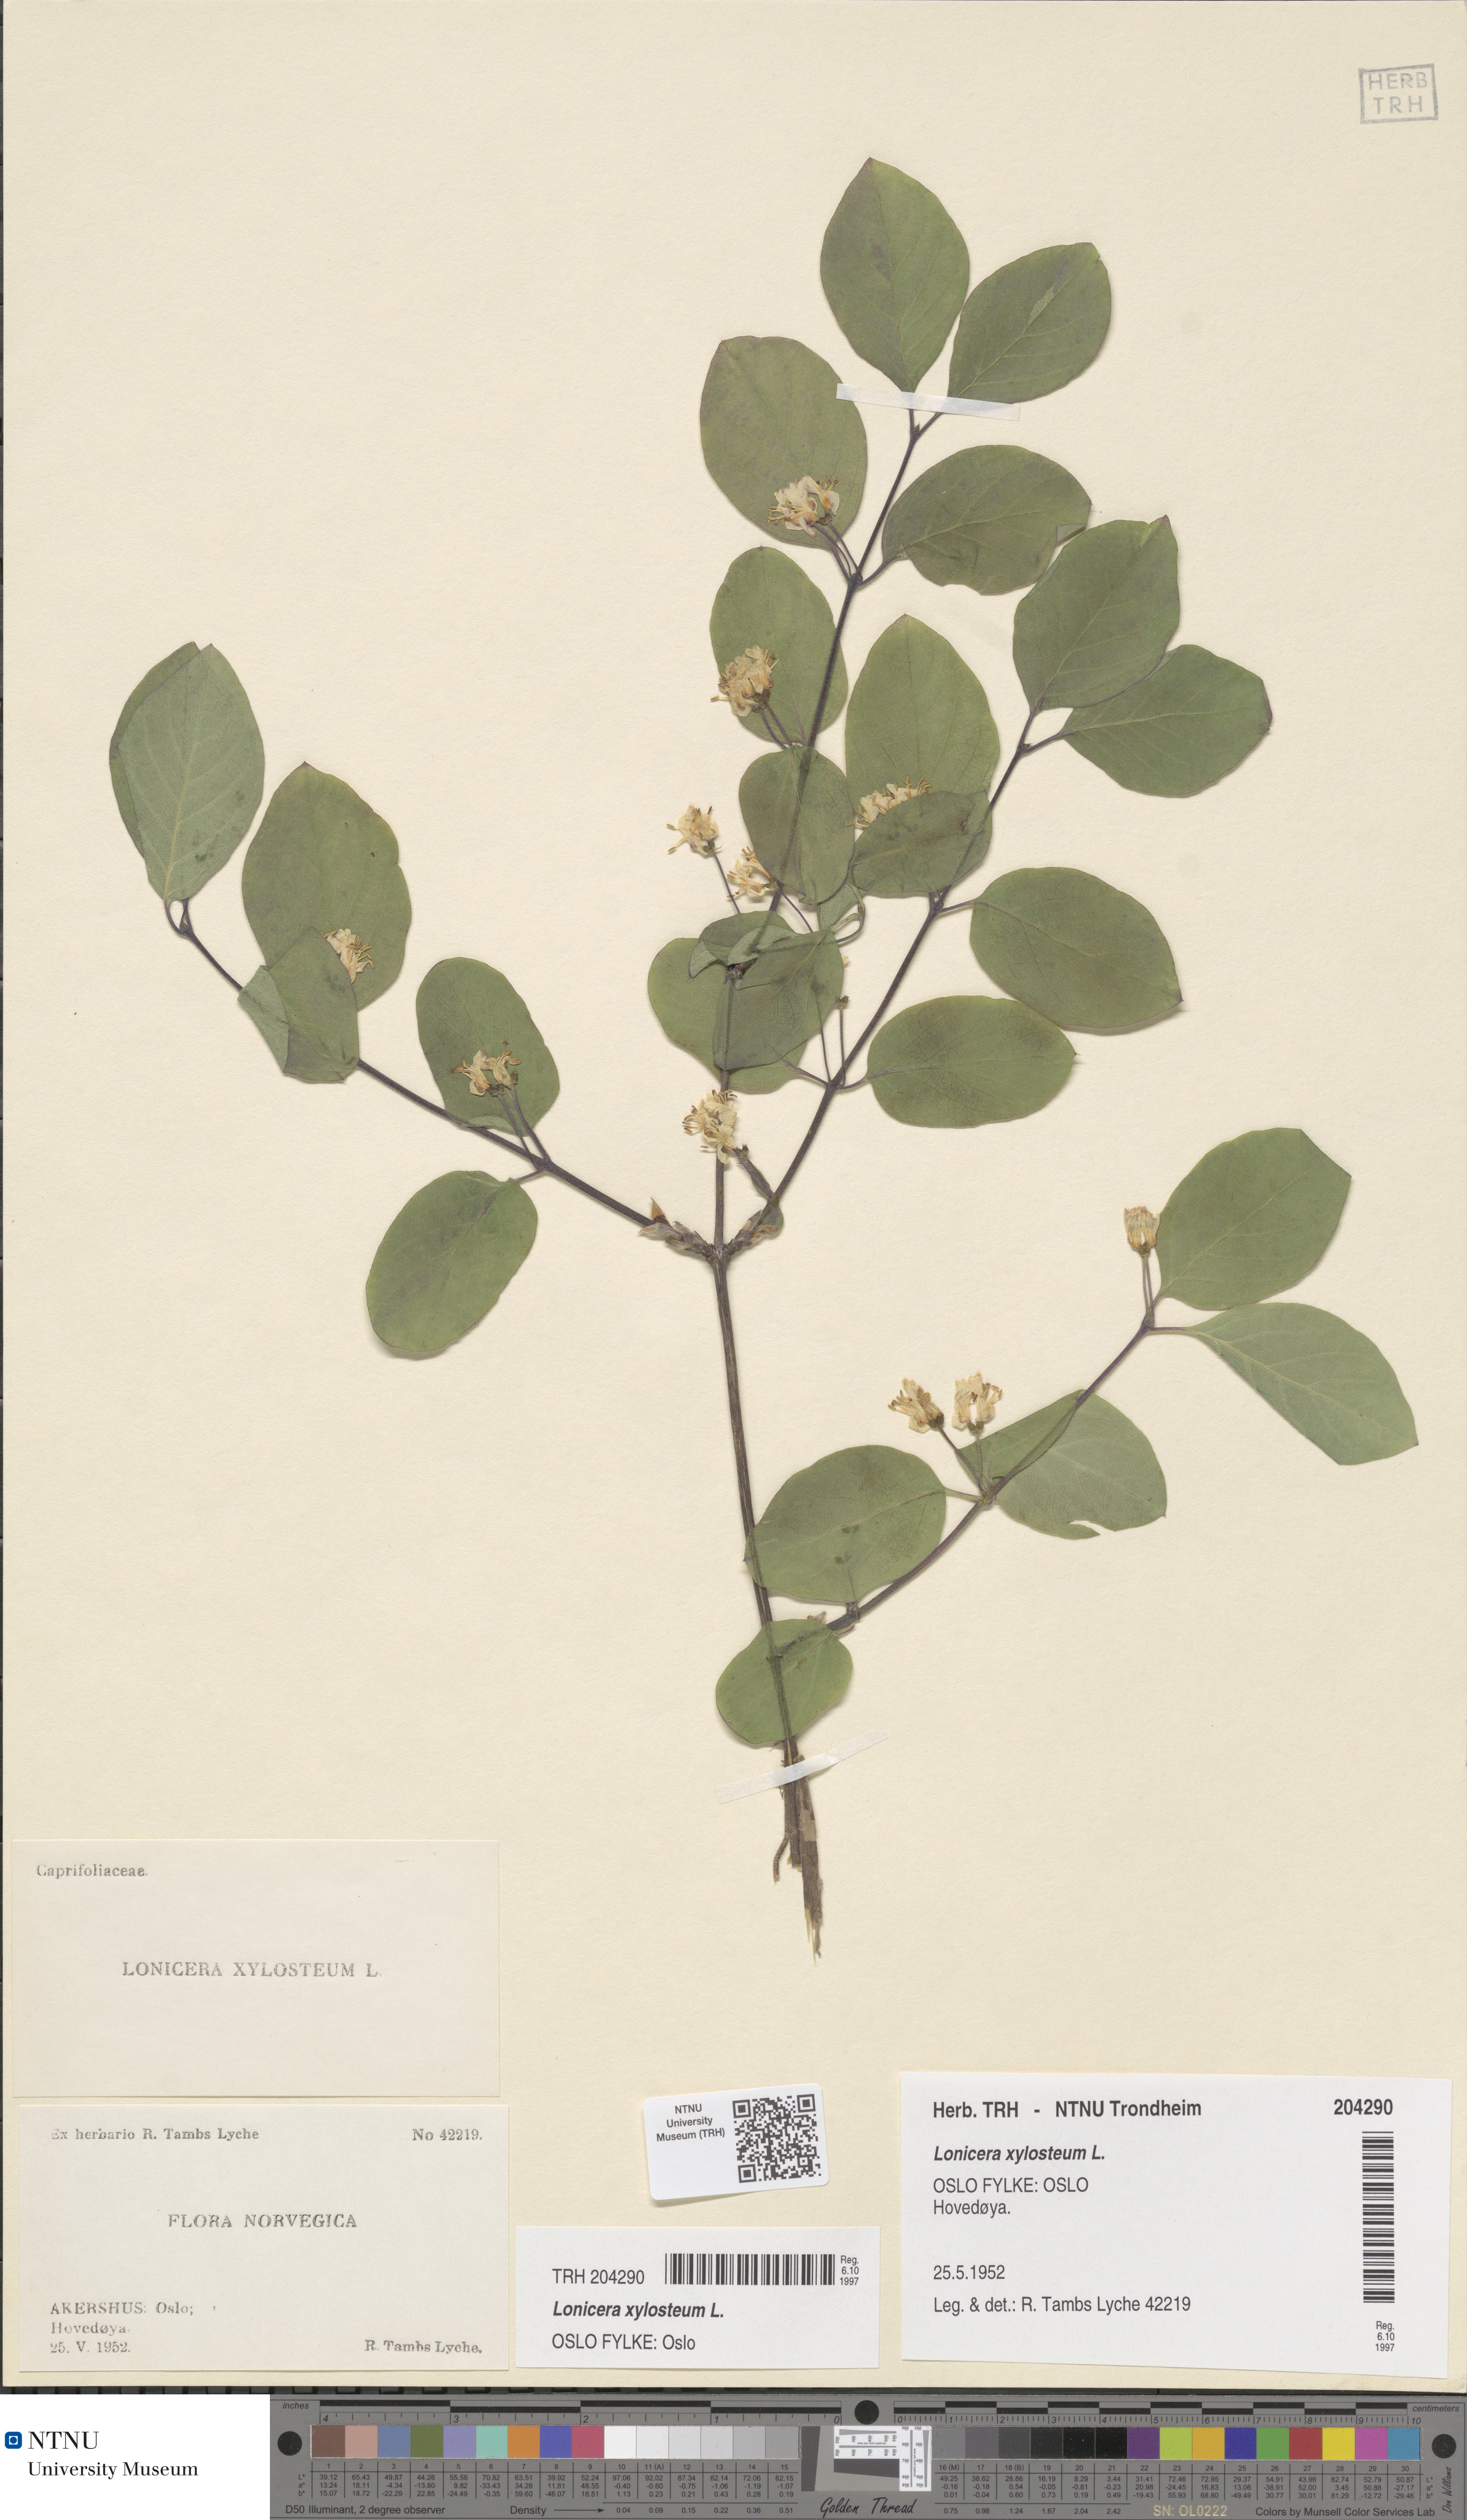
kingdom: Plantae
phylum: Tracheophyta
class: Magnoliopsida
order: Dipsacales
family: Caprifoliaceae
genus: Lonicera
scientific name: Lonicera xylosteum
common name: Fly honeysuckle
